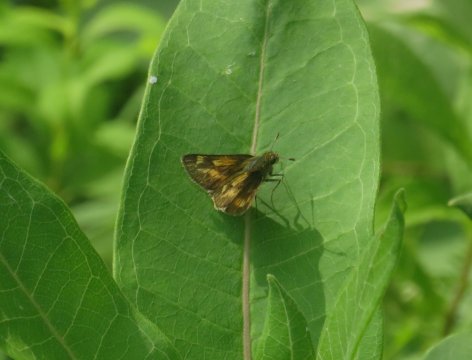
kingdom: Animalia
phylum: Arthropoda
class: Insecta
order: Lepidoptera
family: Hesperiidae
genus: Polites
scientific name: Polites
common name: Long Dash Skipper
